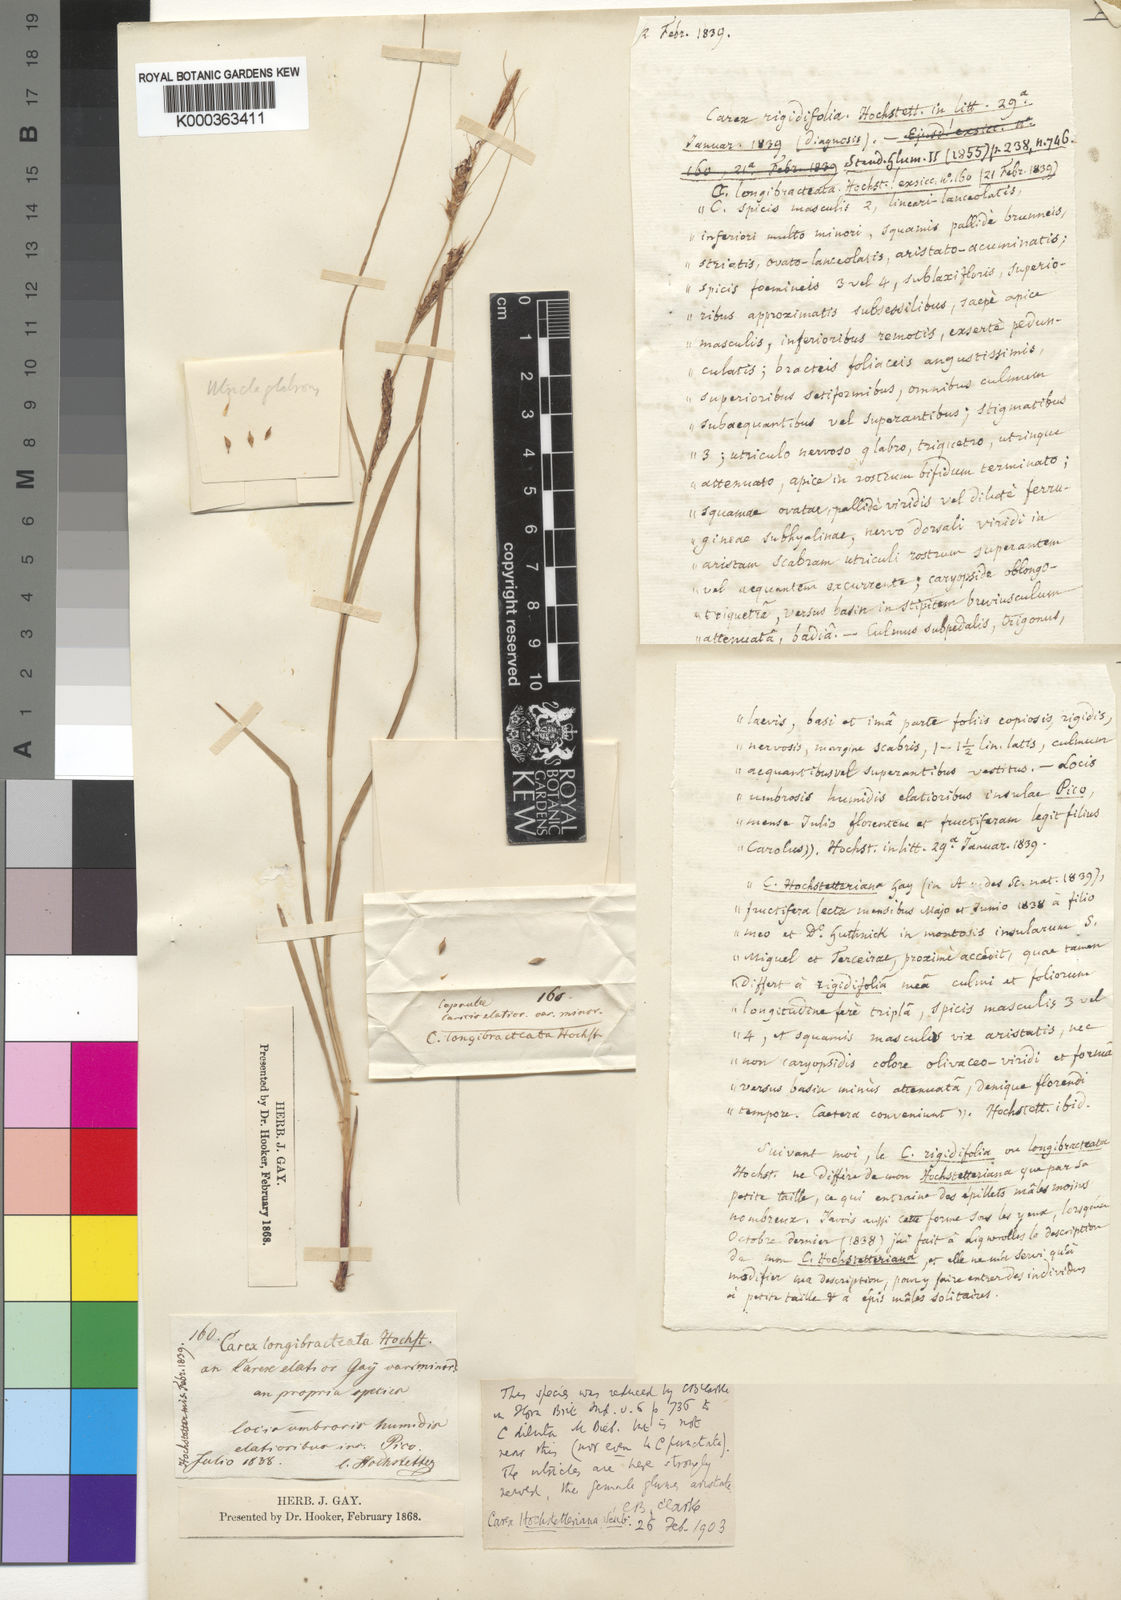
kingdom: Plantae
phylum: Tracheophyta
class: Liliopsida
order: Poales
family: Cyperaceae
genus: Carex
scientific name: Carex hochstetteriana
